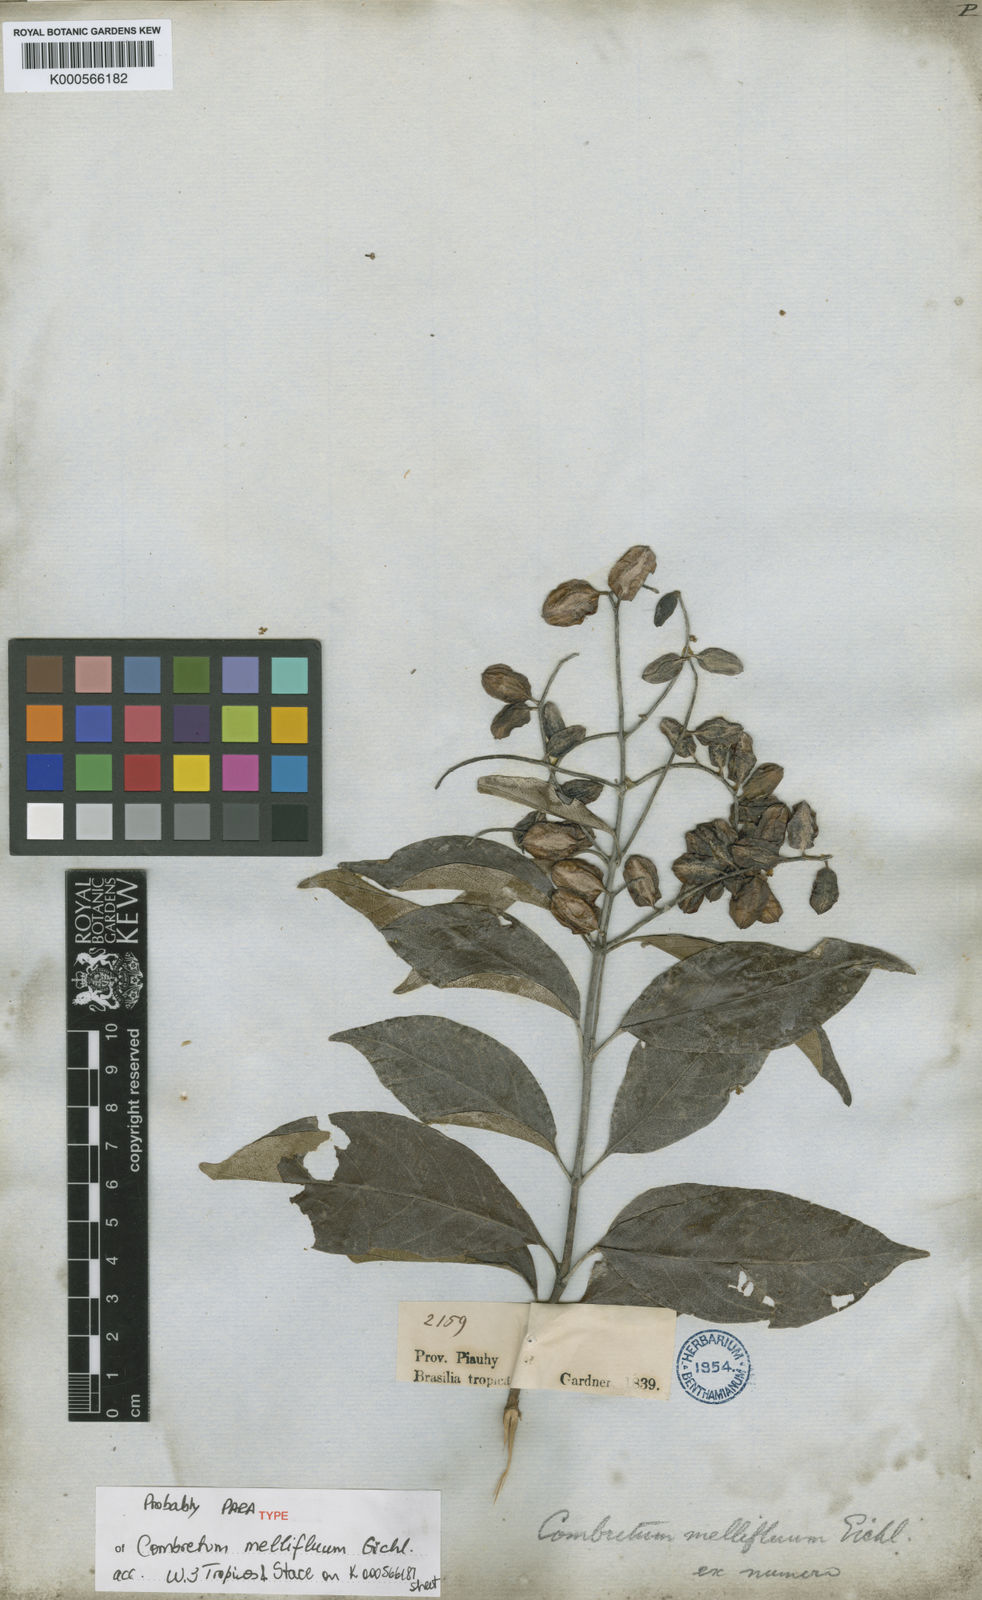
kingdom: Plantae
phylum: Tracheophyta
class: Magnoliopsida
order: Myrtales
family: Combretaceae
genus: Combretum
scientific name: Combretum mellifluum
